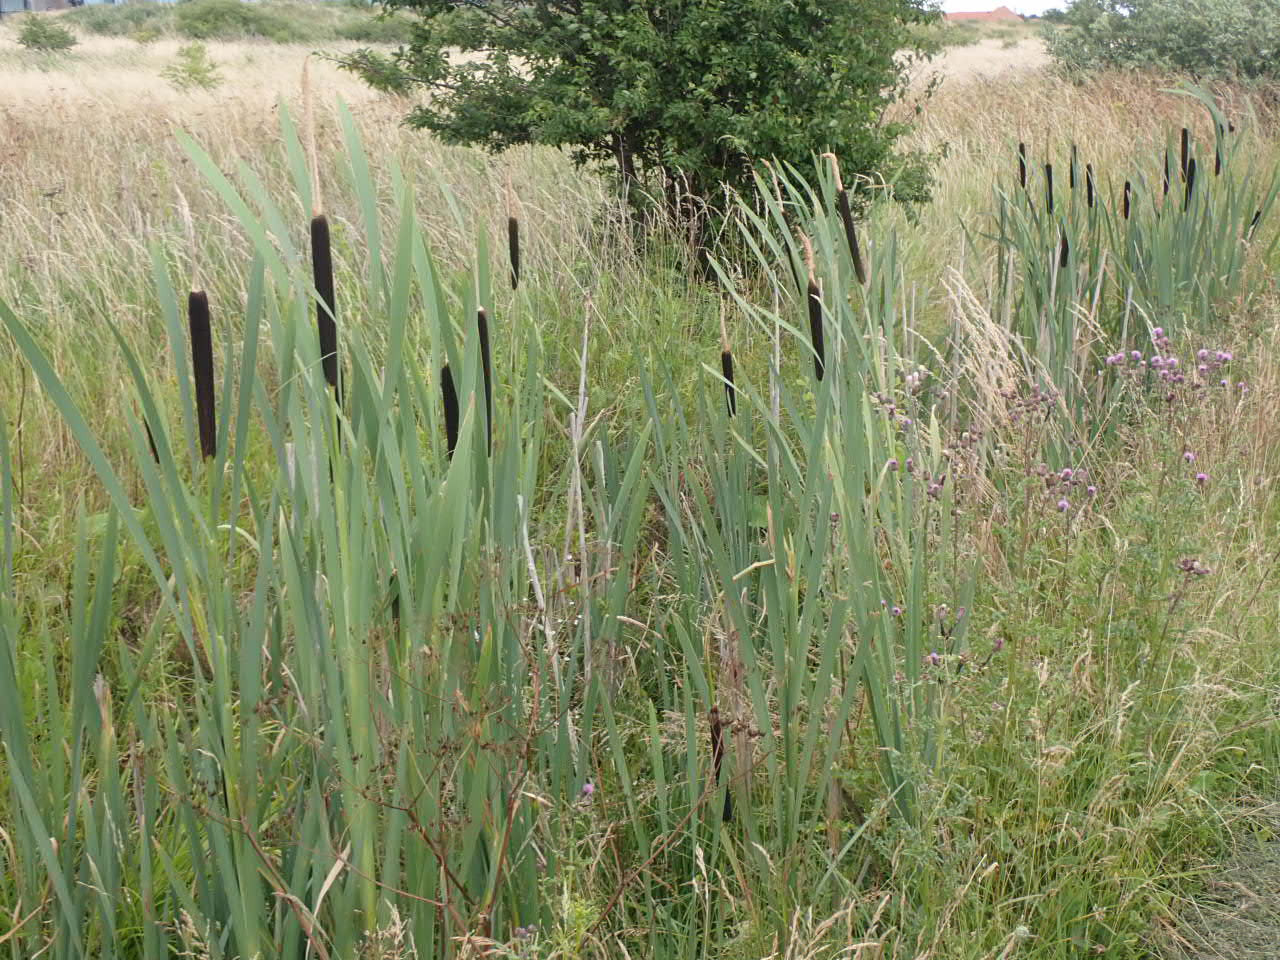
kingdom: Plantae
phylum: Tracheophyta
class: Liliopsida
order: Poales
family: Typhaceae
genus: Typha
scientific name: Typha latifolia
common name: Bredbladet dunhammer
